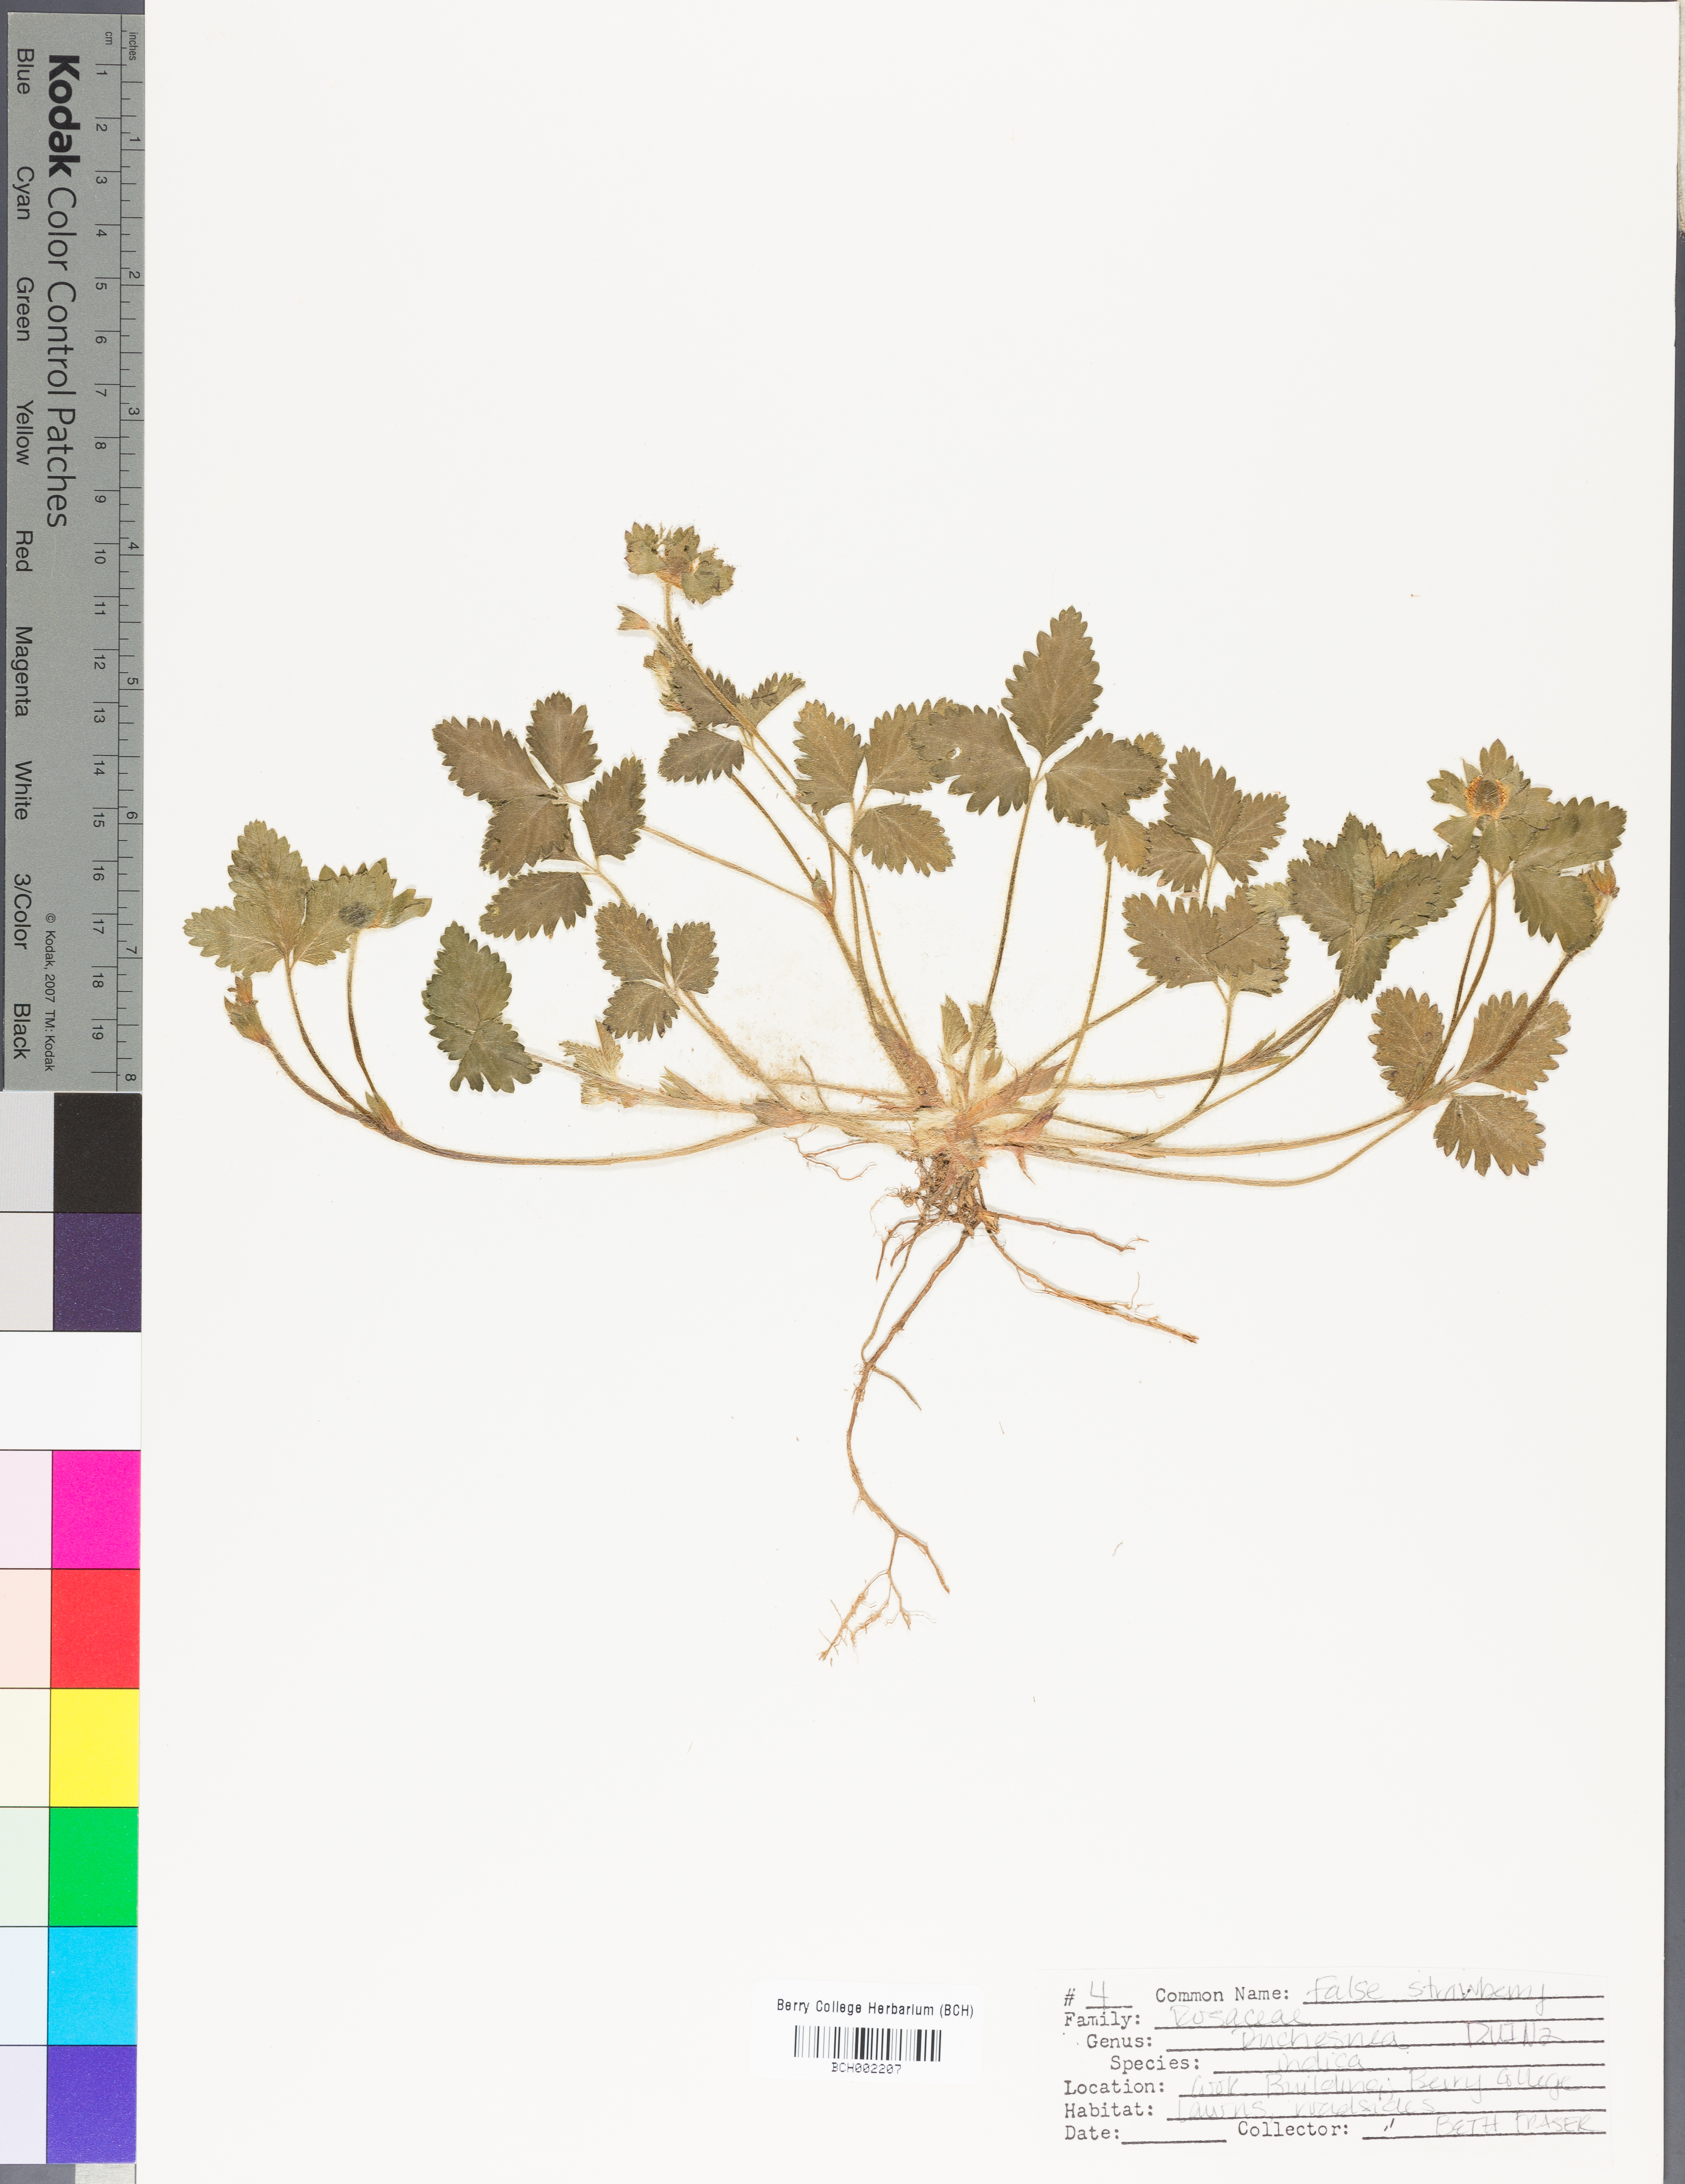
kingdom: Plantae
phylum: Tracheophyta
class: Magnoliopsida
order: Rosales
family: Rosaceae
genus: Potentilla
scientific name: Potentilla indica
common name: Yellow-flowered strawberry
